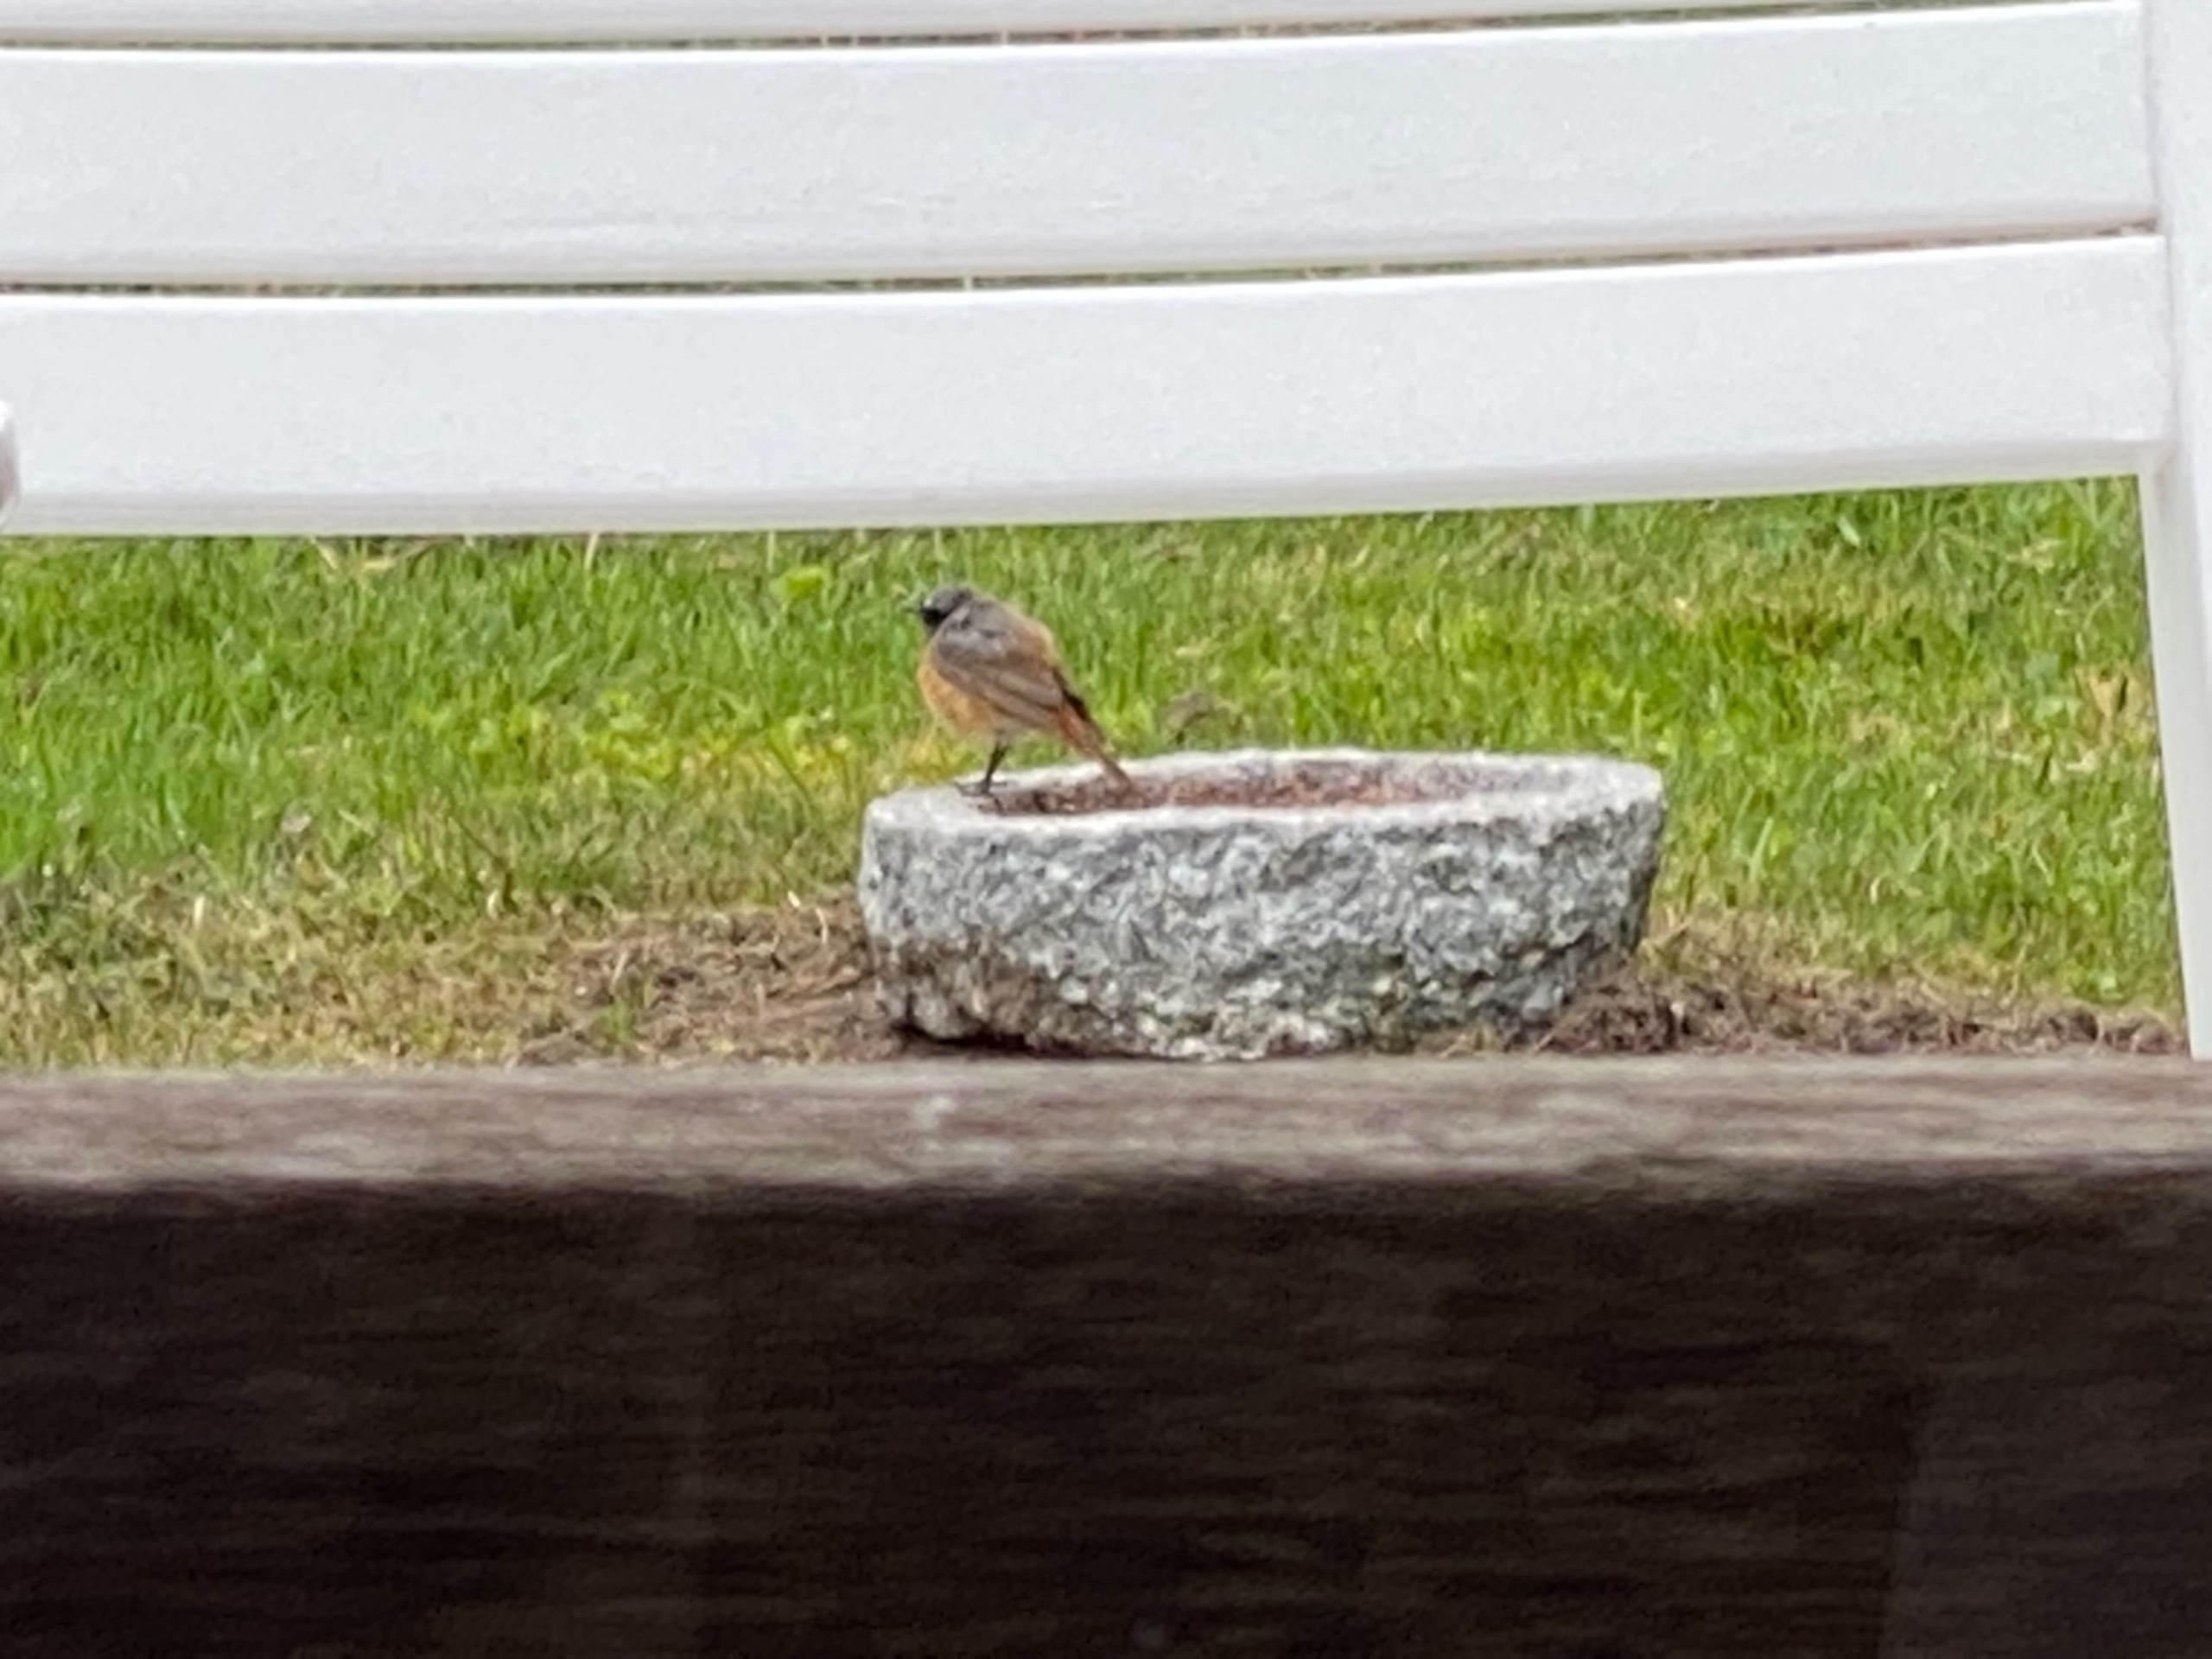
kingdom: Animalia
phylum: Chordata
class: Aves
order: Passeriformes
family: Muscicapidae
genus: Phoenicurus
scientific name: Phoenicurus phoenicurus
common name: Rødstjert
